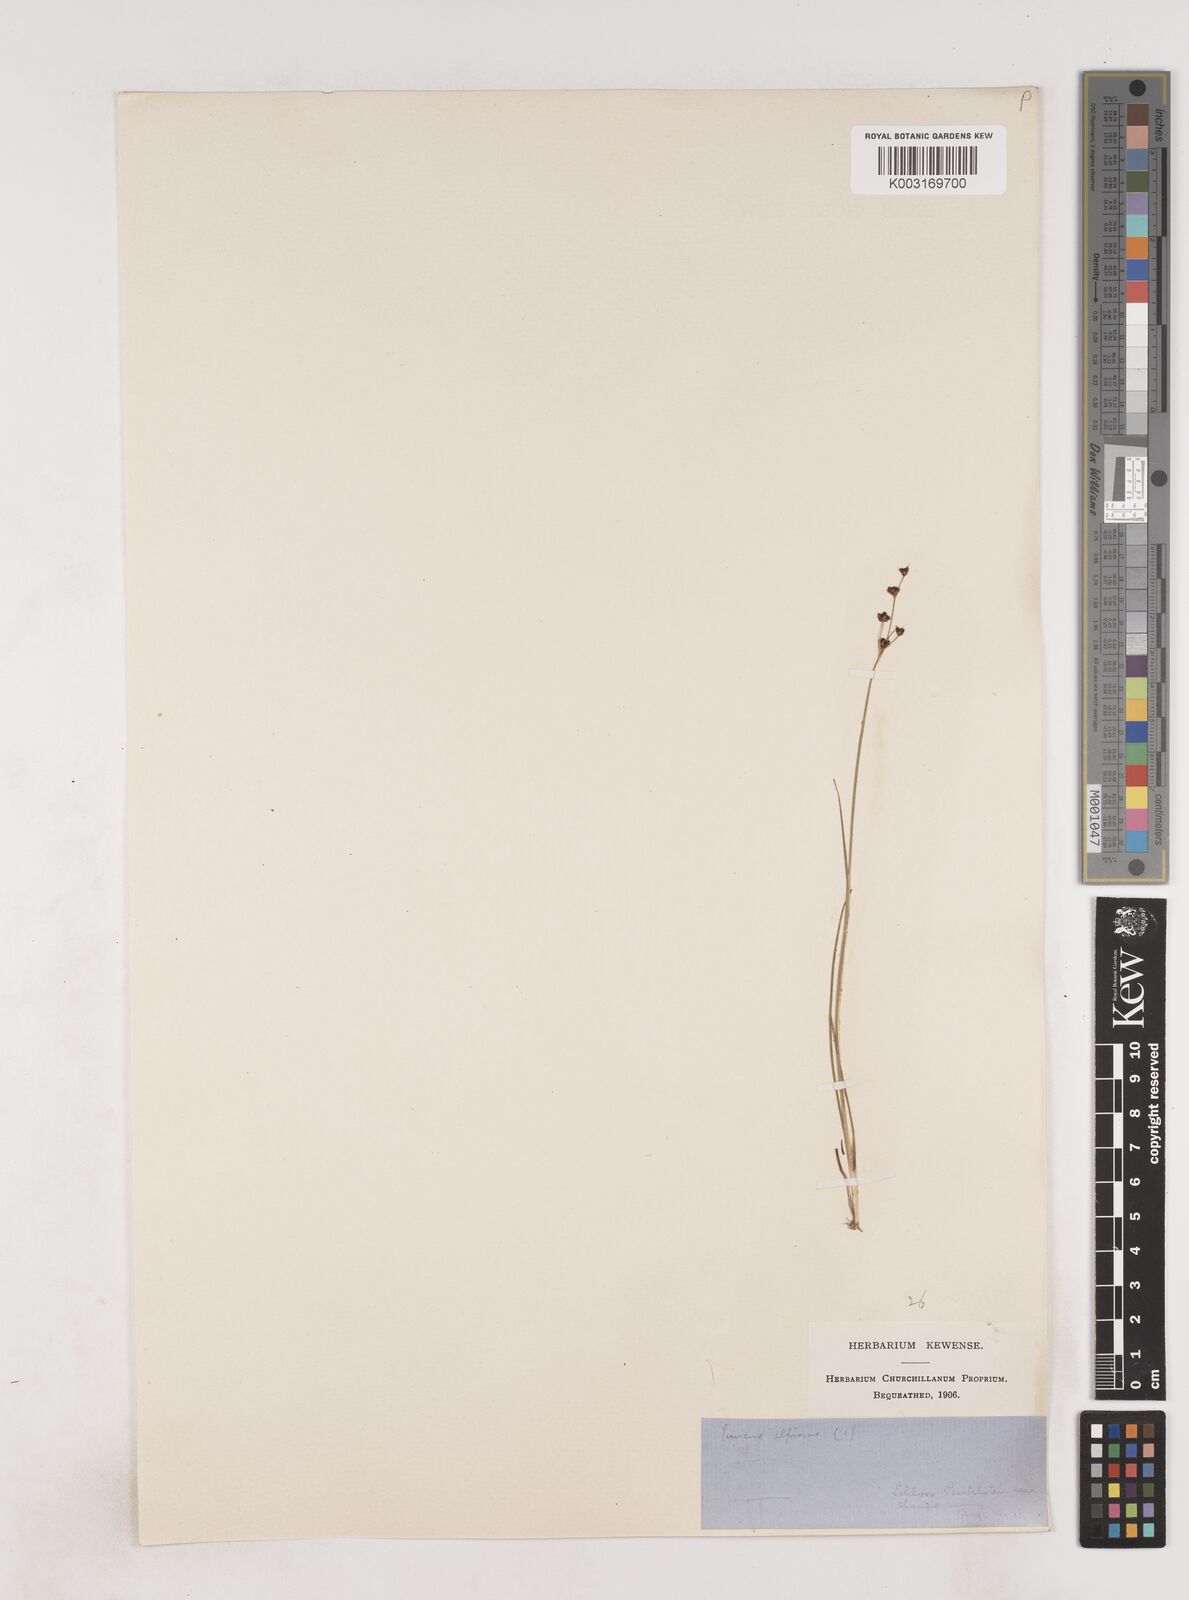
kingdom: Plantae
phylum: Tracheophyta
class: Liliopsida
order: Poales
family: Juncaceae
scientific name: Juncaceae
